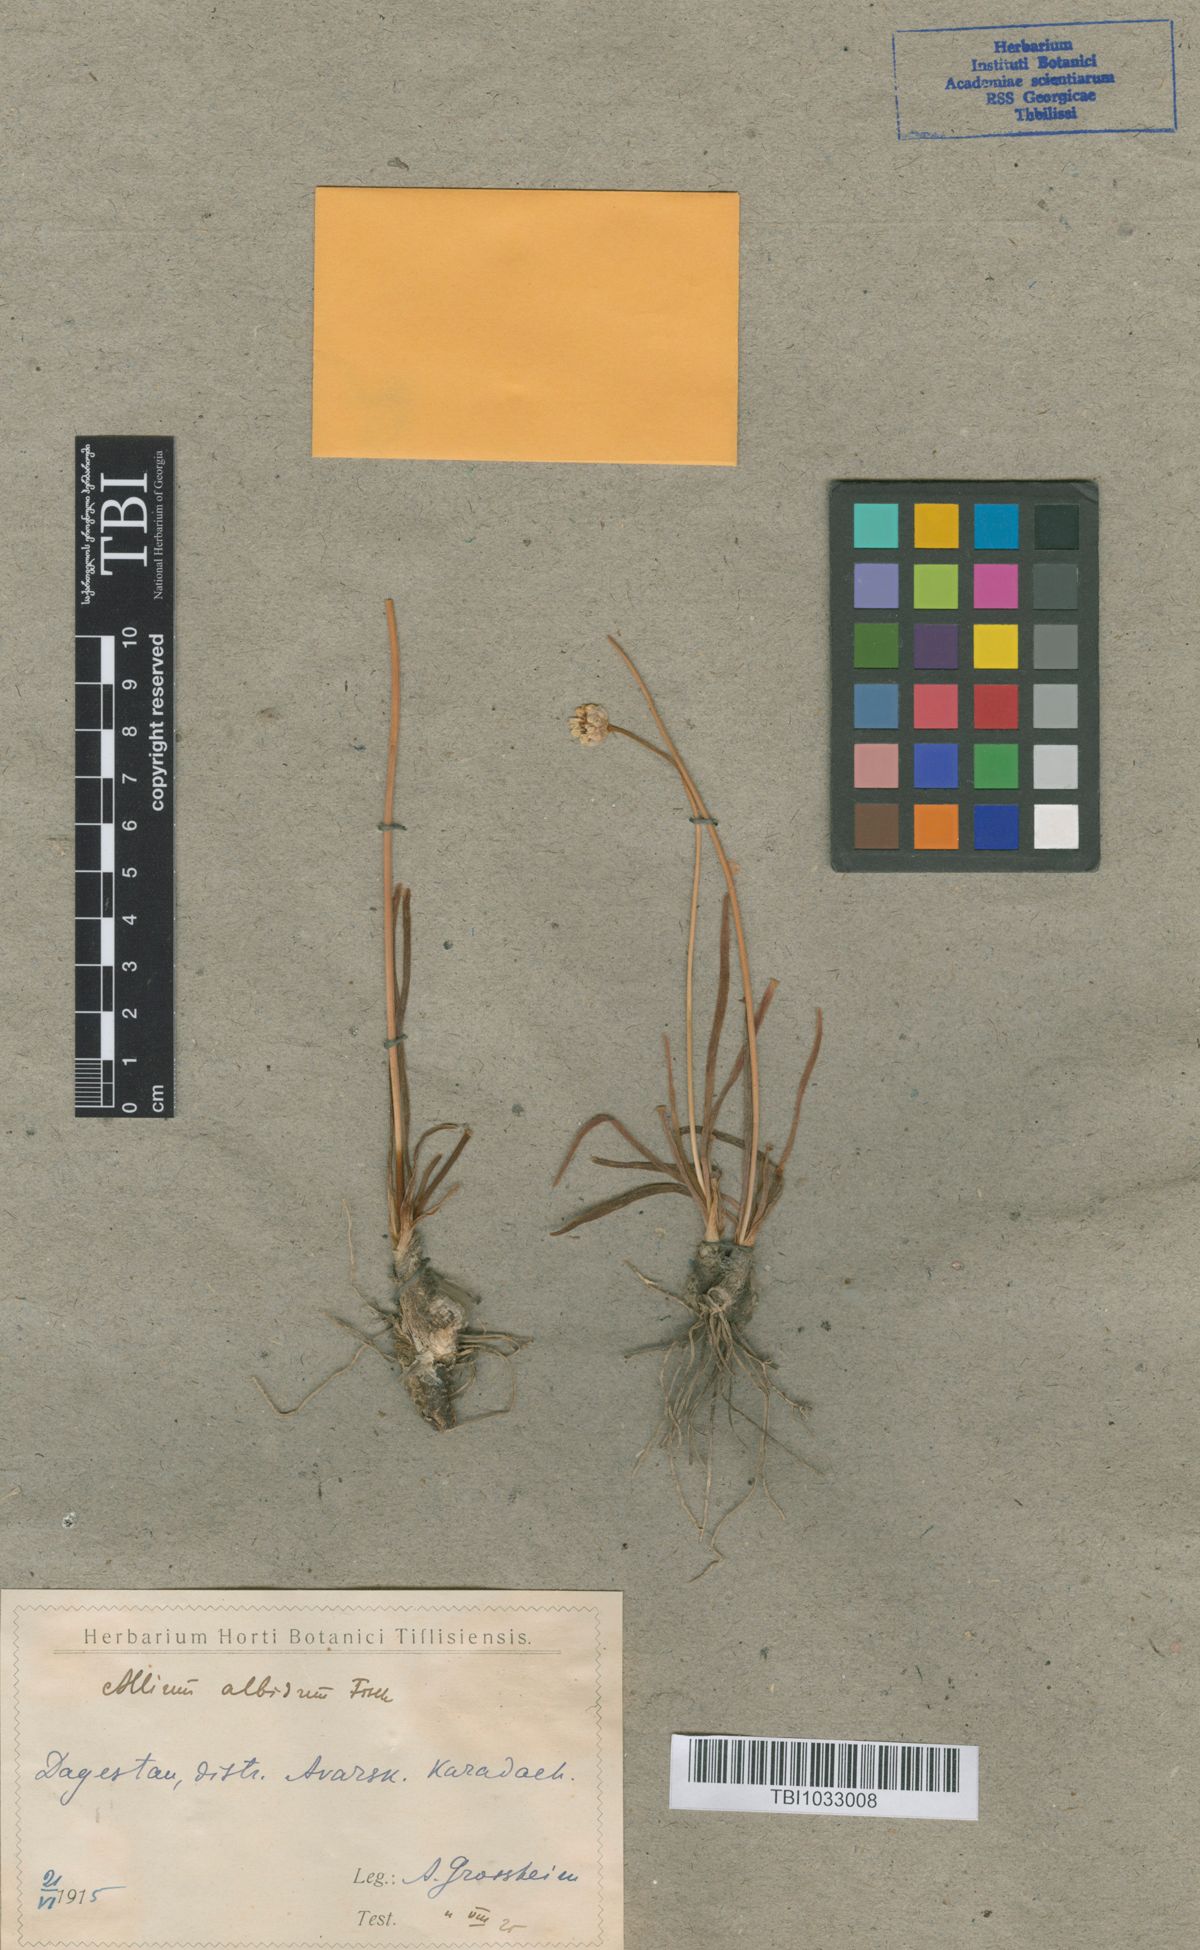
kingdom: Plantae
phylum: Tracheophyta
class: Liliopsida
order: Asparagales
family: Amaryllidaceae
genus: Allium
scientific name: Allium denudatum
